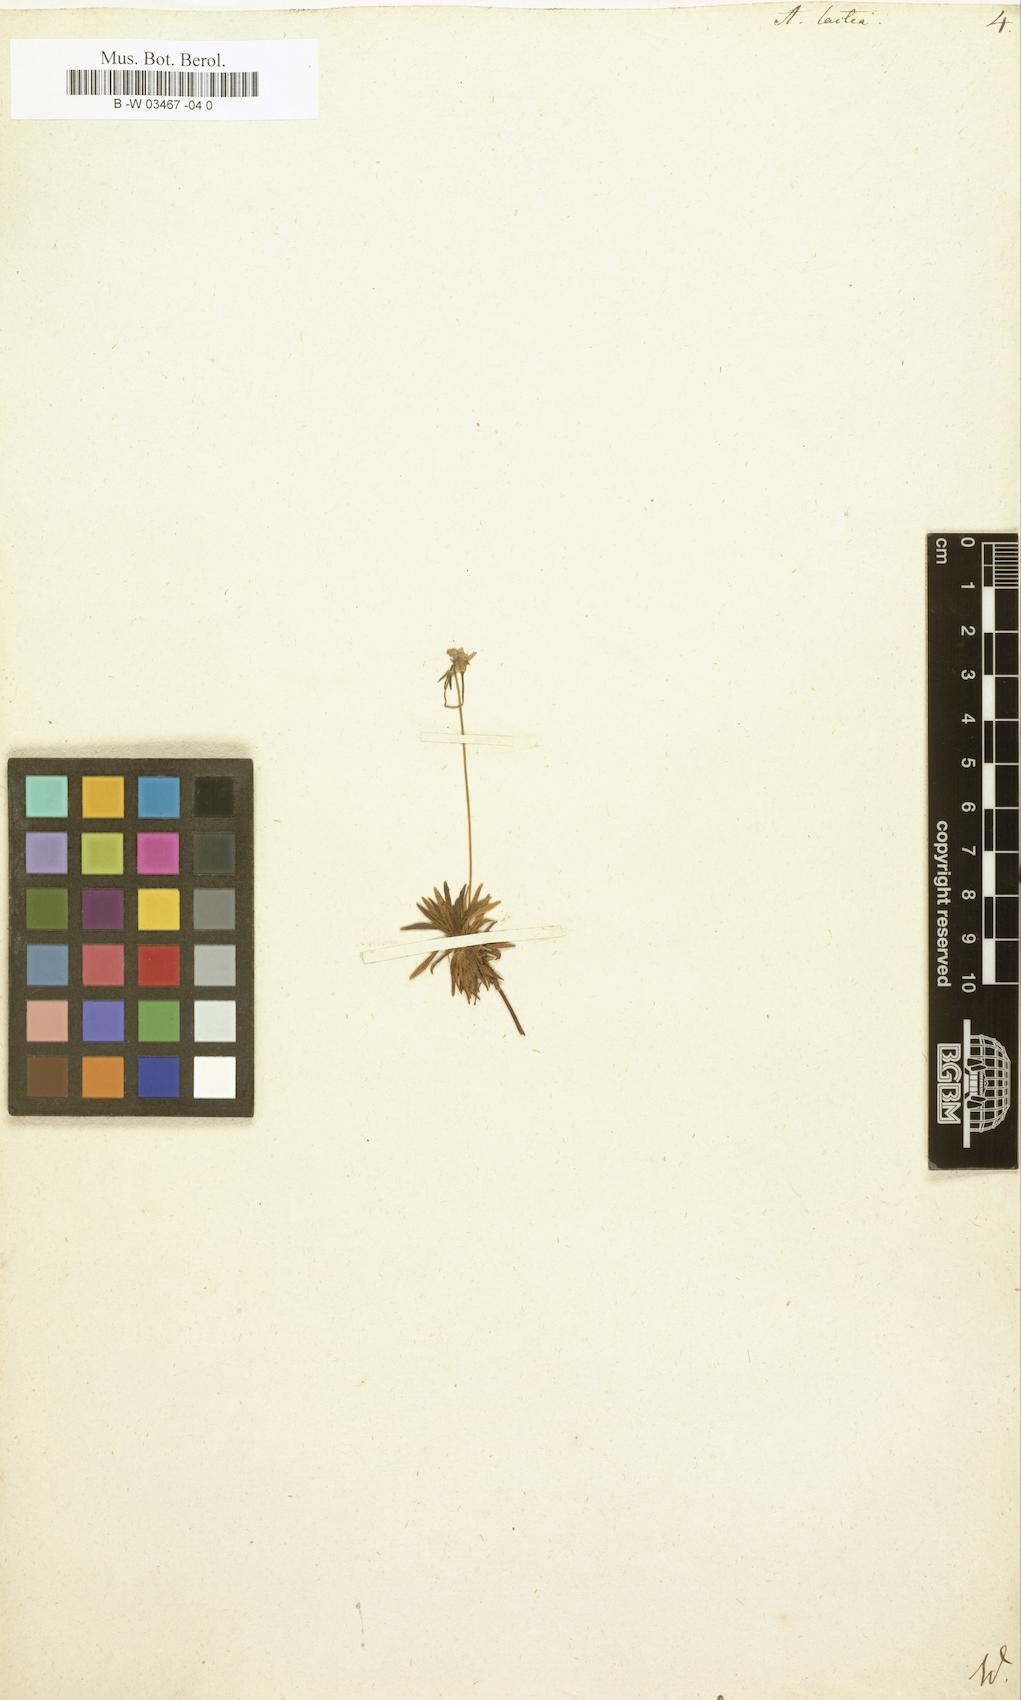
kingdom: Plantae
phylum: Tracheophyta
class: Magnoliopsida
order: Ericales
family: Primulaceae
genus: Androsace
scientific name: Androsace lactea
